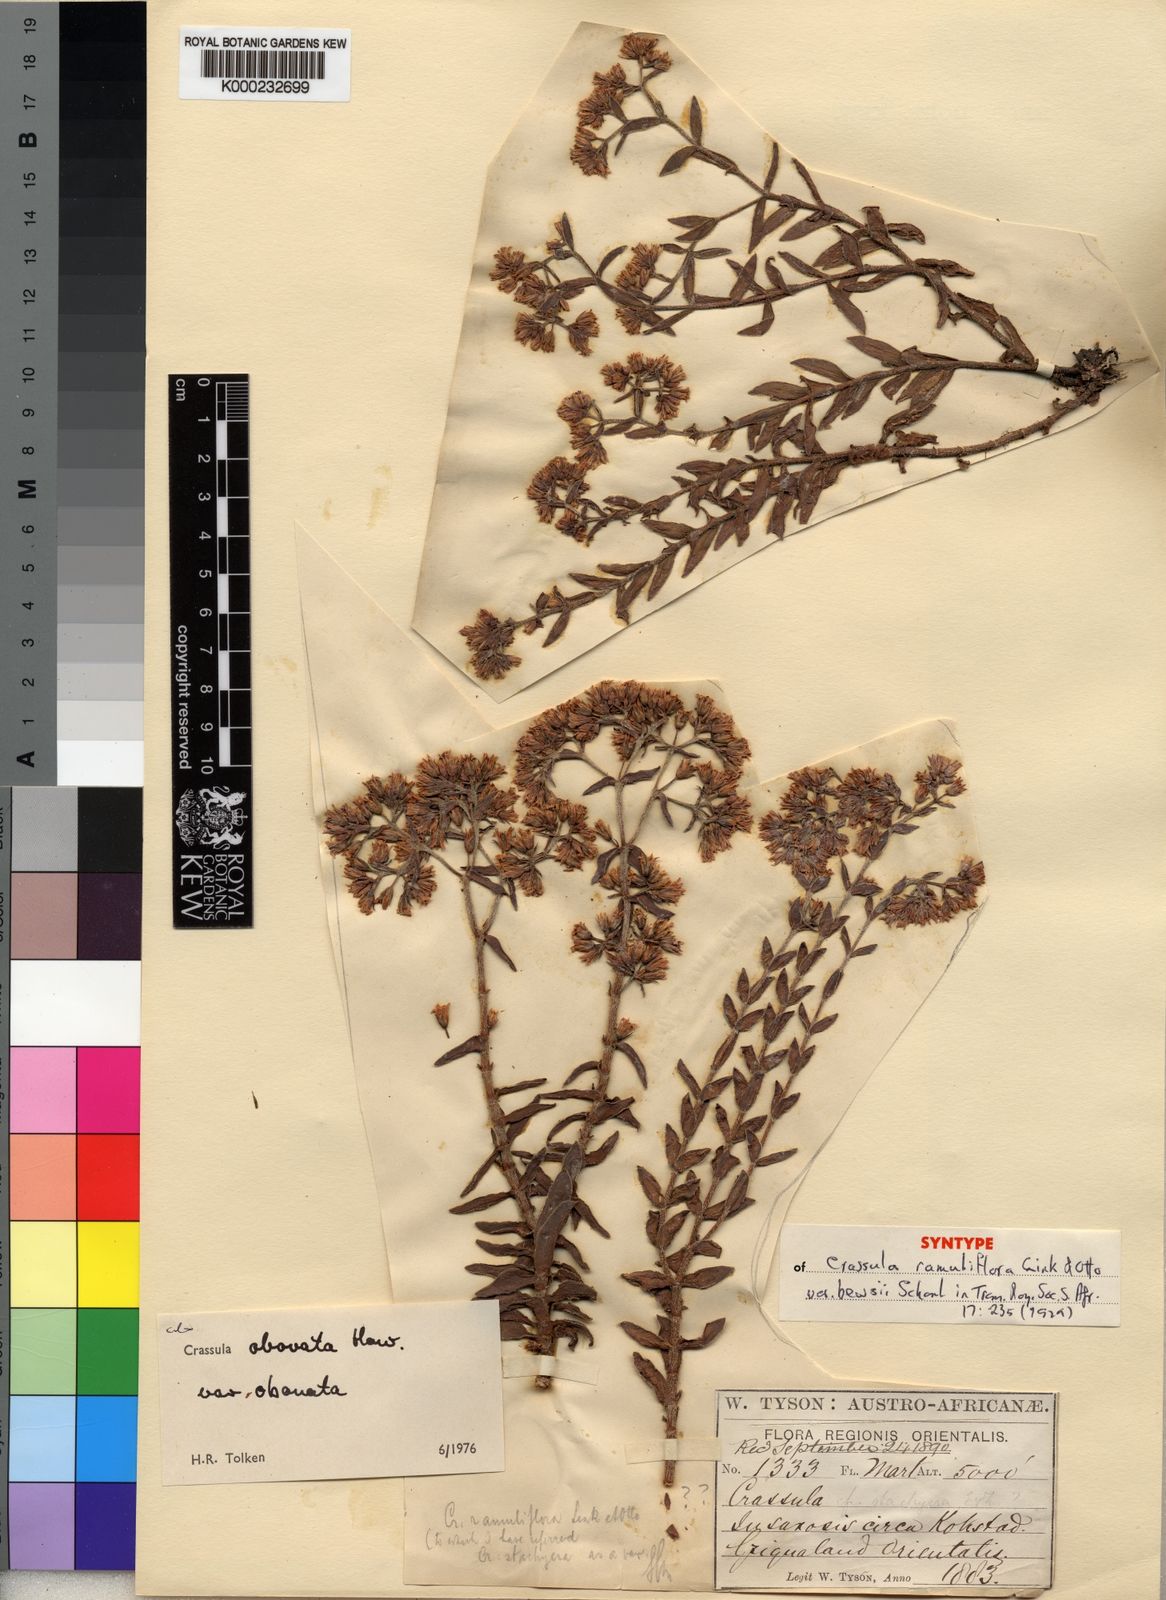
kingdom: Plantae
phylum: Tracheophyta
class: Magnoliopsida
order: Saxifragales
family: Crassulaceae
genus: Crassula
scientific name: Crassula obovata
